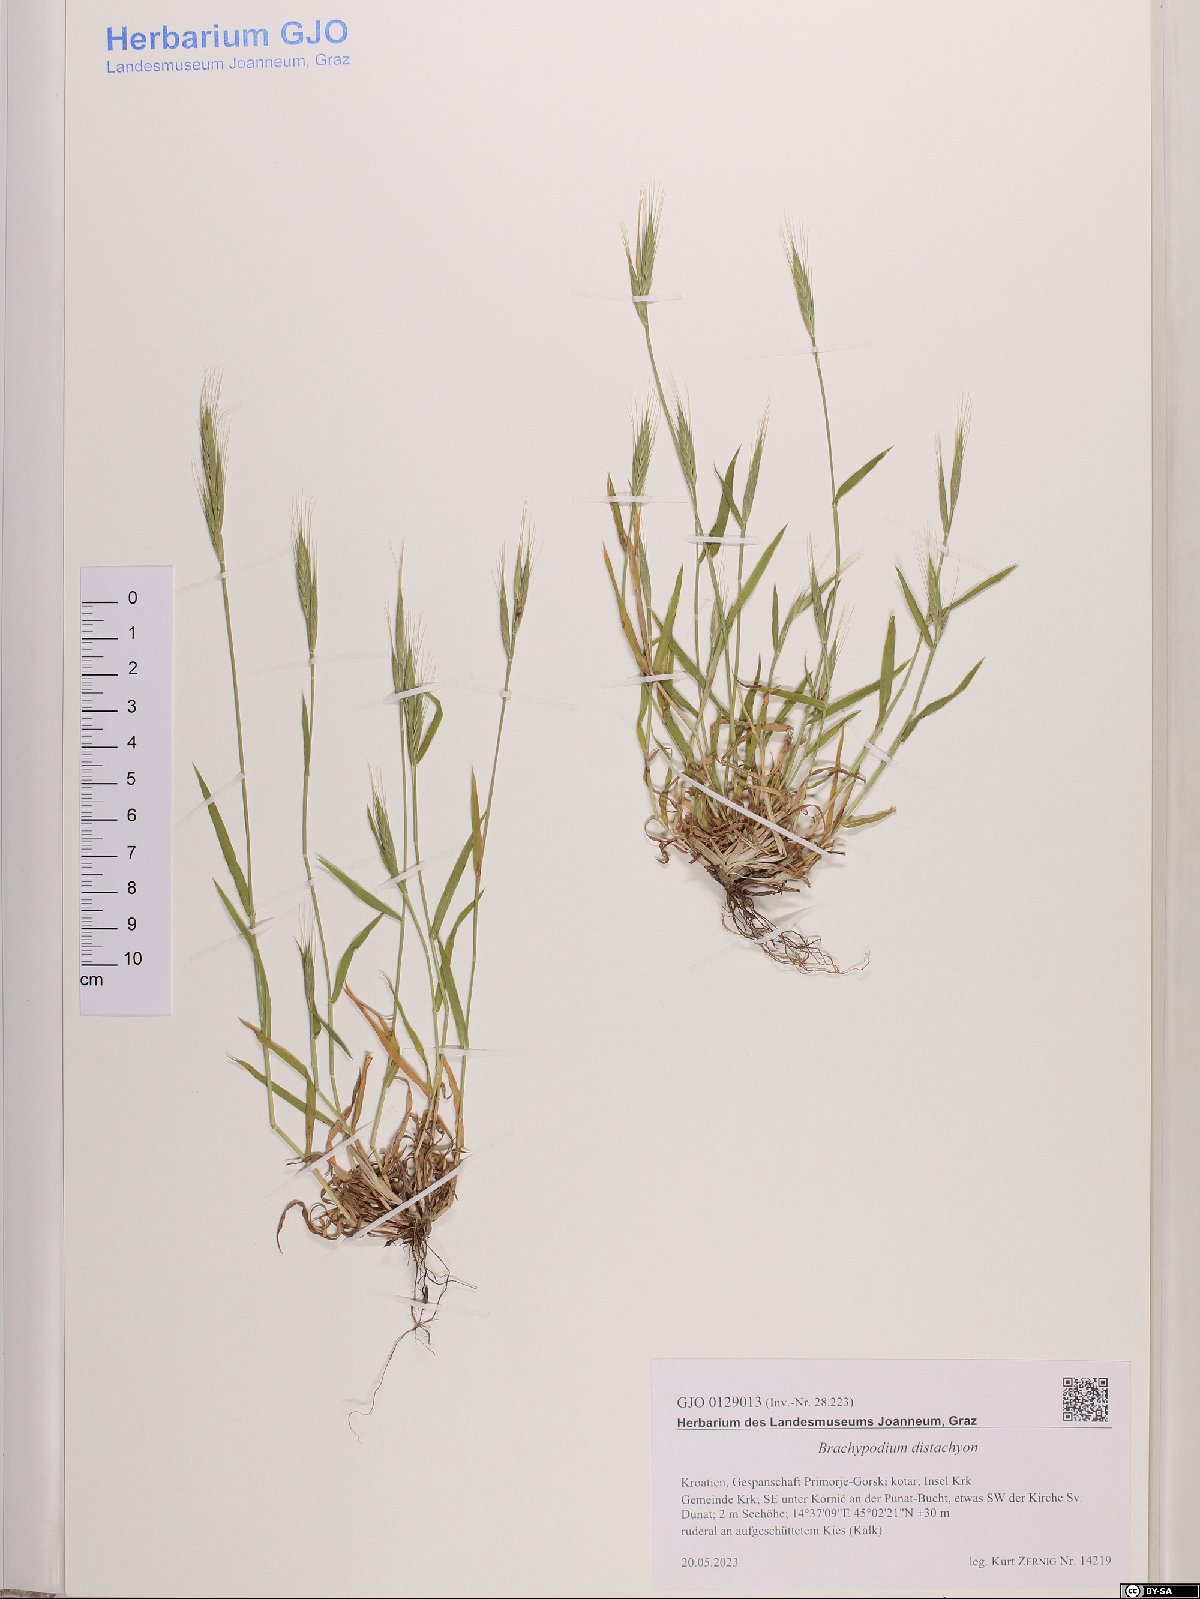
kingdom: Plantae
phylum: Tracheophyta
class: Liliopsida
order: Poales
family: Poaceae
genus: Brachypodium
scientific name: Brachypodium distachyon
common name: Stiff brome
